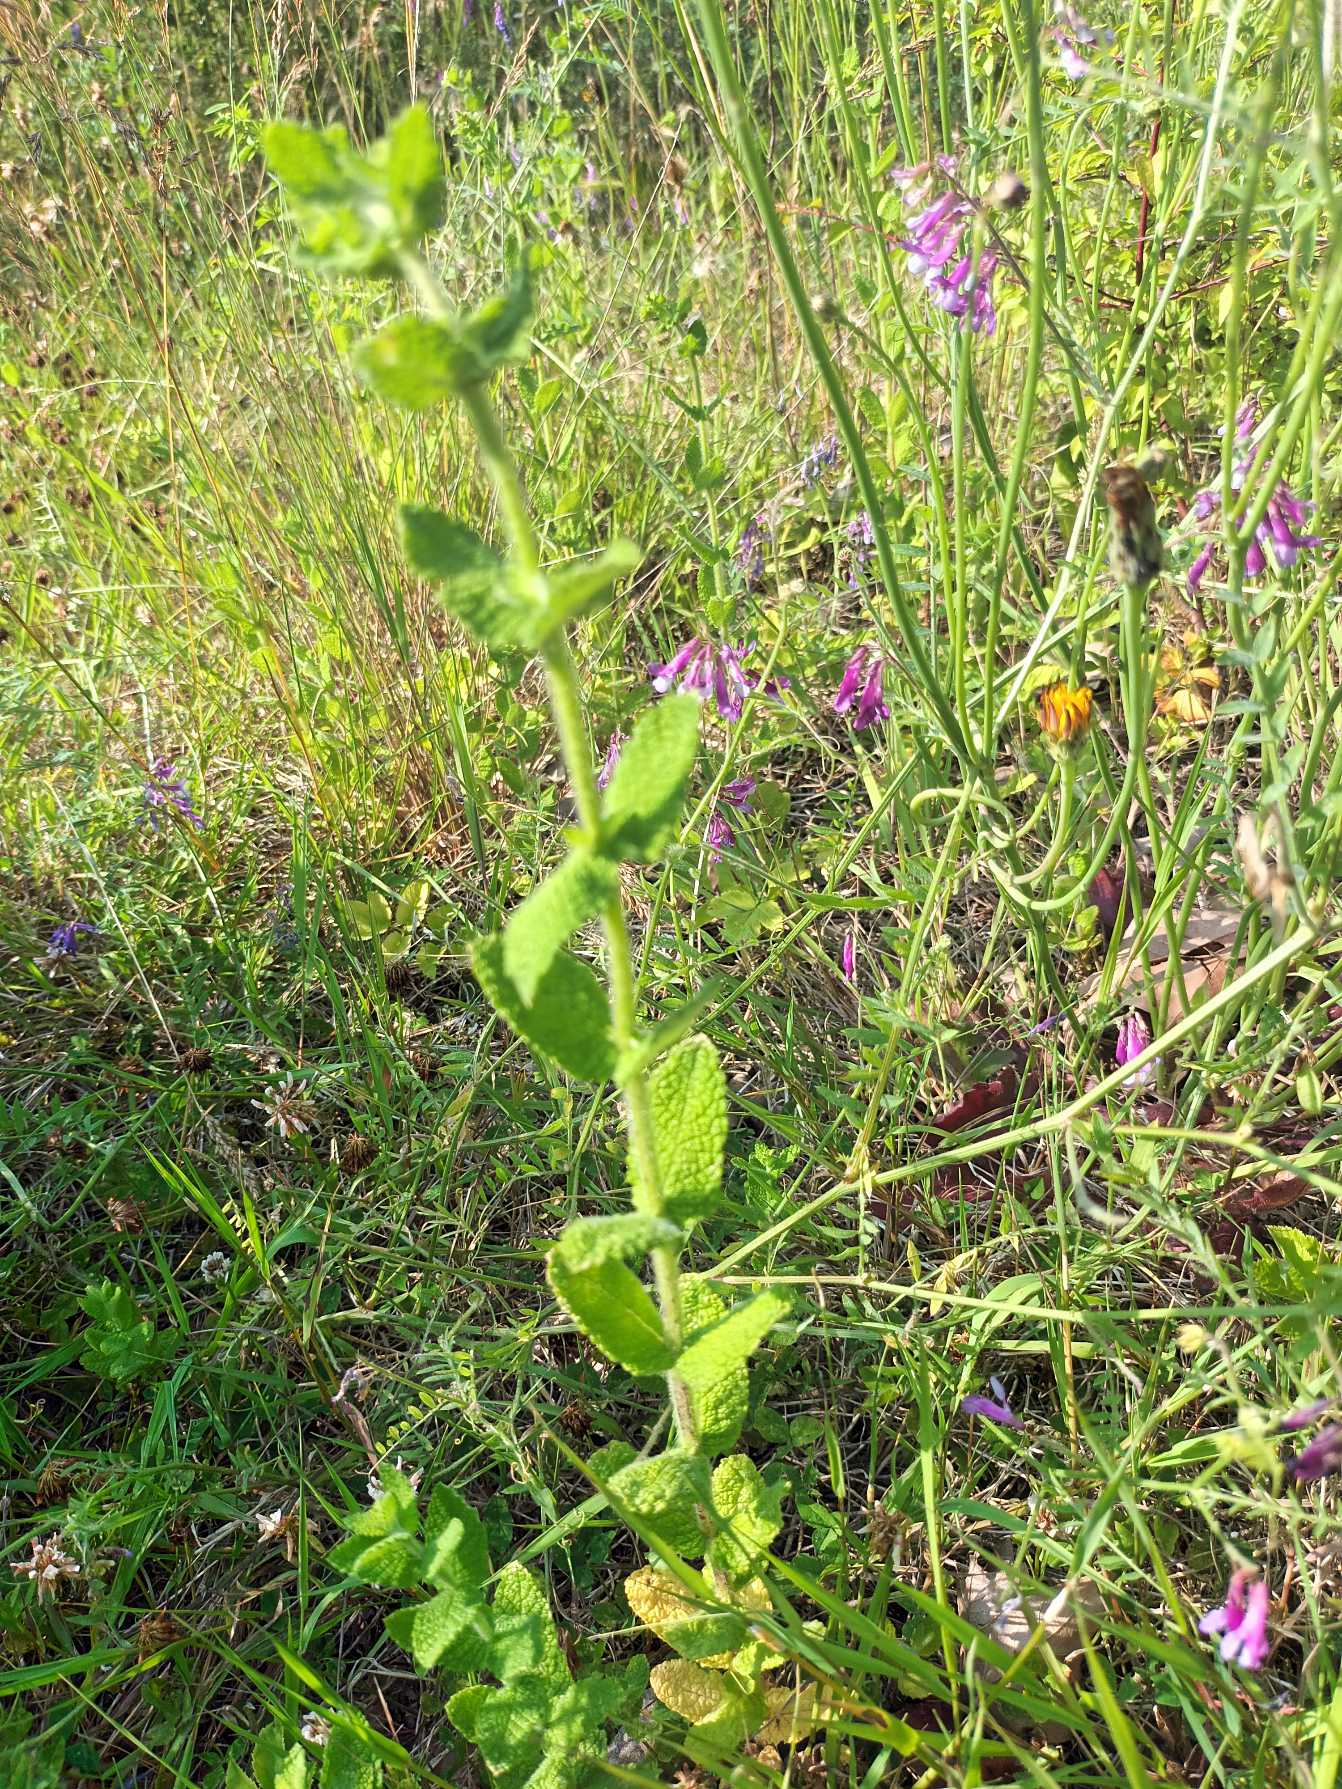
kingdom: Plantae
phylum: Tracheophyta
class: Magnoliopsida
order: Lamiales
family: Lamiaceae
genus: Mentha
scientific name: Mentha suaveolens
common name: Rundbladet mynte
